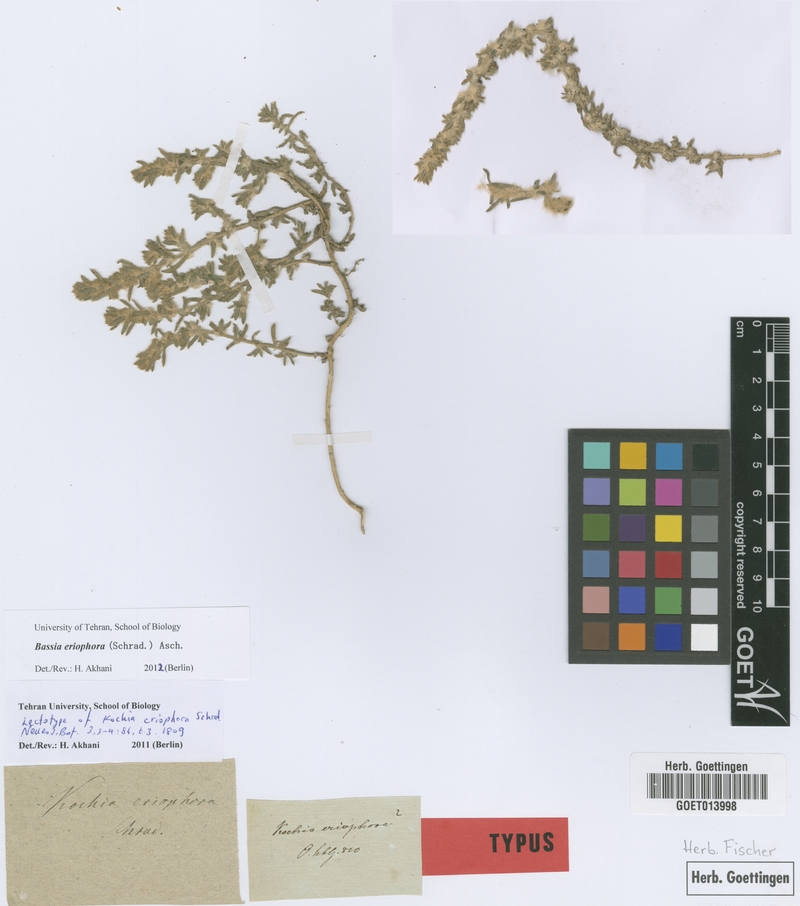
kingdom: Plantae
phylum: Tracheophyta
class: Magnoliopsida
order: Caryophyllales
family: Amaranthaceae
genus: Bassia
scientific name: Bassia eriophora
